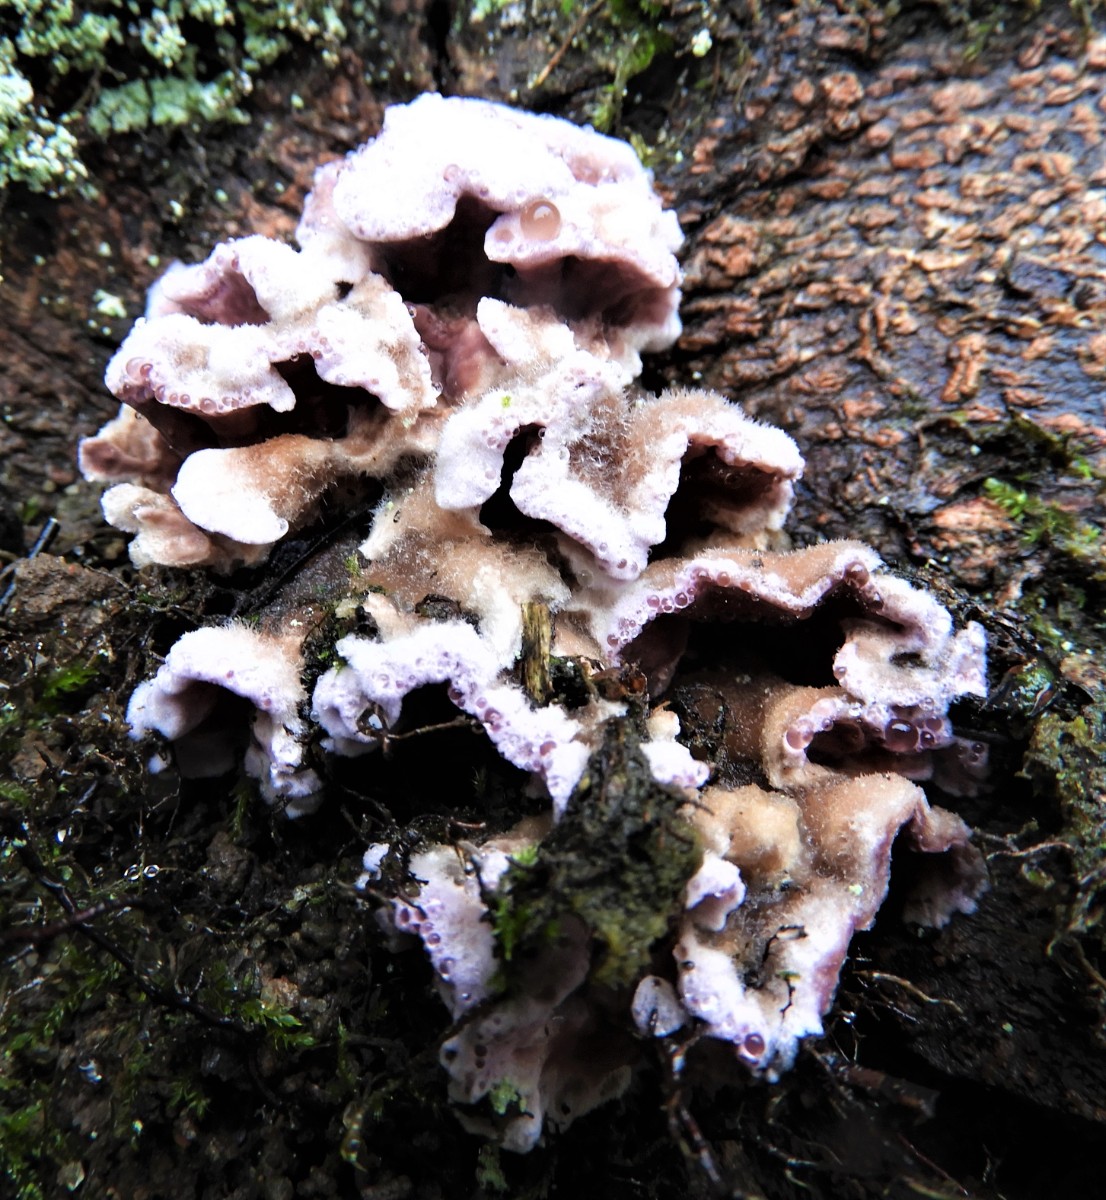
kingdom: Fungi
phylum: Basidiomycota
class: Agaricomycetes
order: Agaricales
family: Cyphellaceae
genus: Chondrostereum
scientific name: Chondrostereum purpureum
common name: purpurlædersvamp
